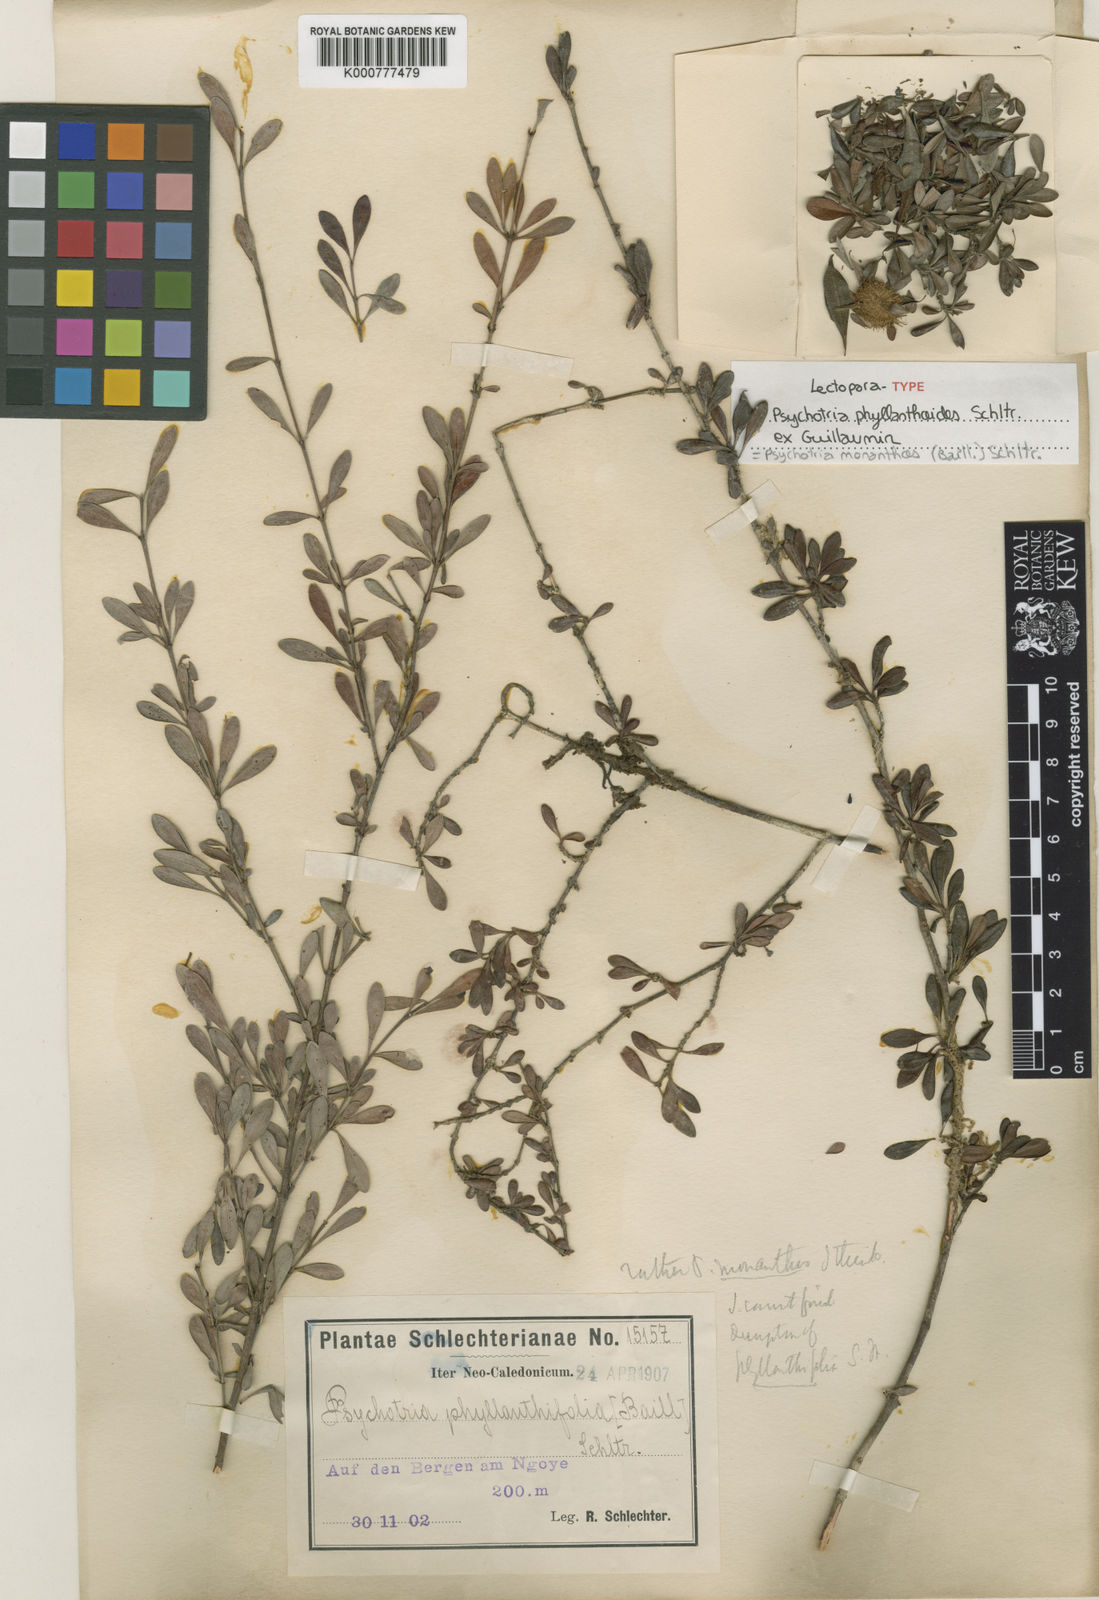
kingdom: Plantae
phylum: Tracheophyta
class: Magnoliopsida
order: Gentianales
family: Rubiaceae
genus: Psychotria
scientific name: Psychotria monanthos
